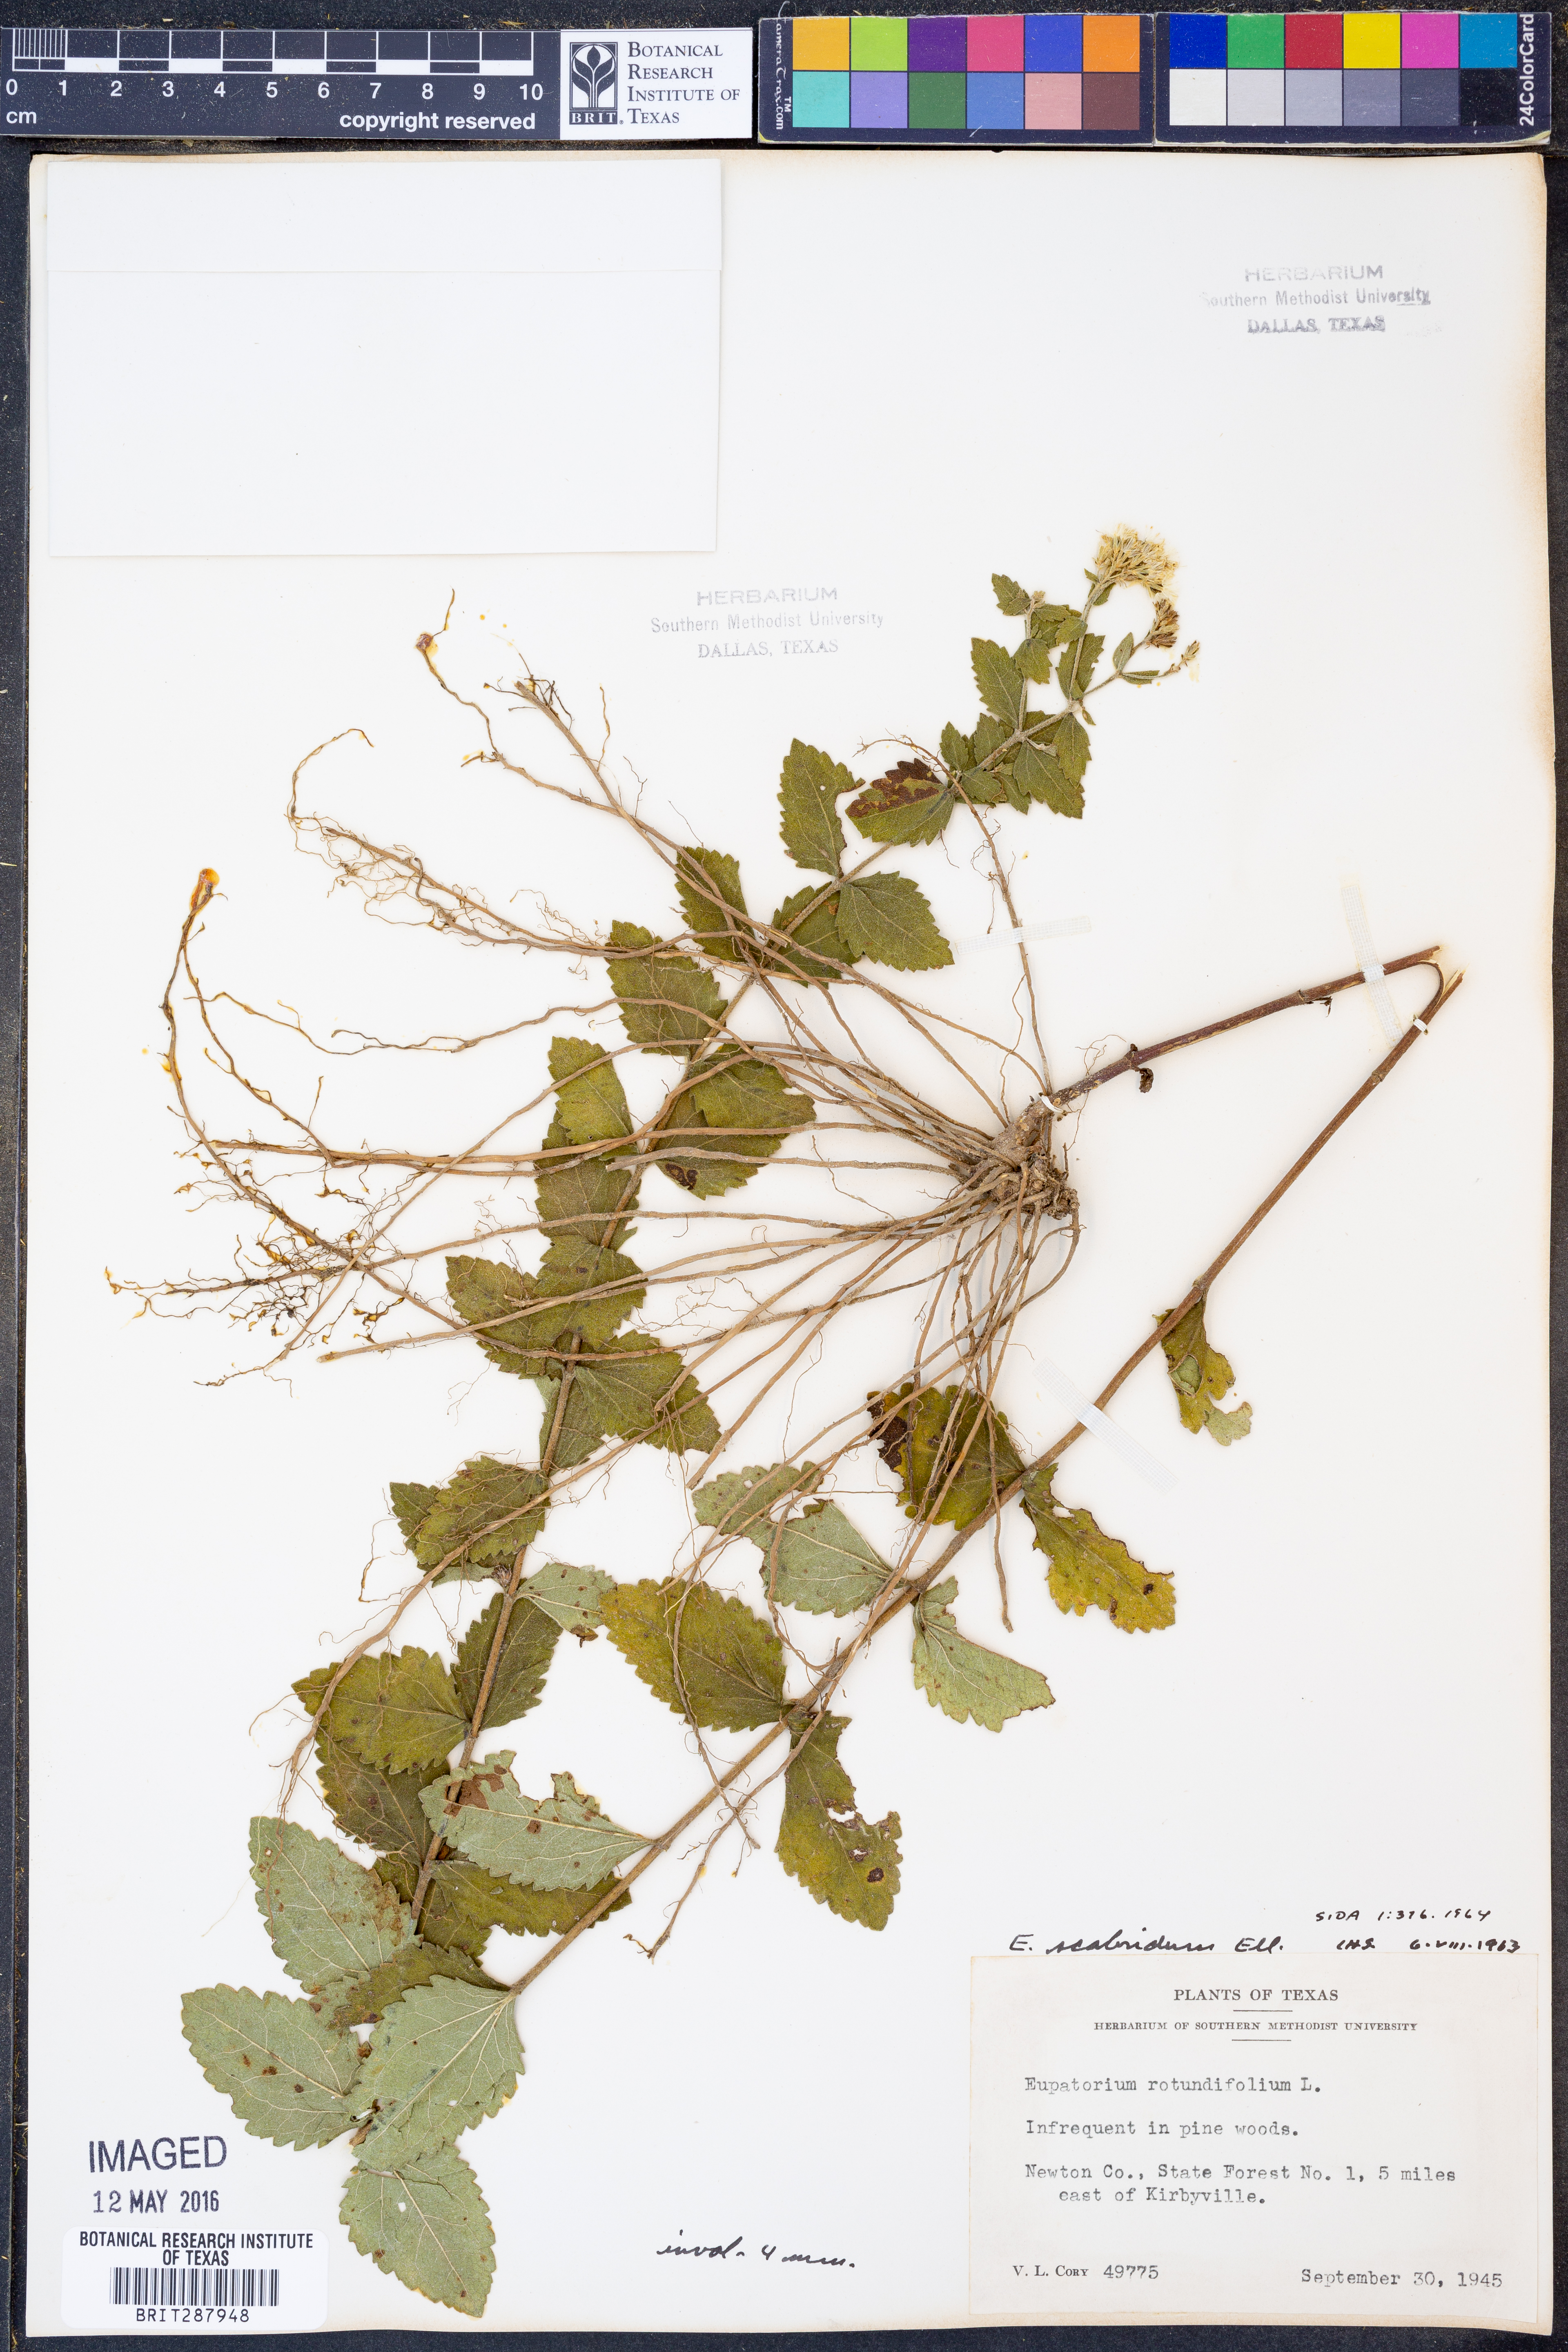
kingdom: Plantae
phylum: Tracheophyta
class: Magnoliopsida
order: Asterales
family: Asteraceae
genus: Eupatorium
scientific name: Eupatorium rotundifolium
